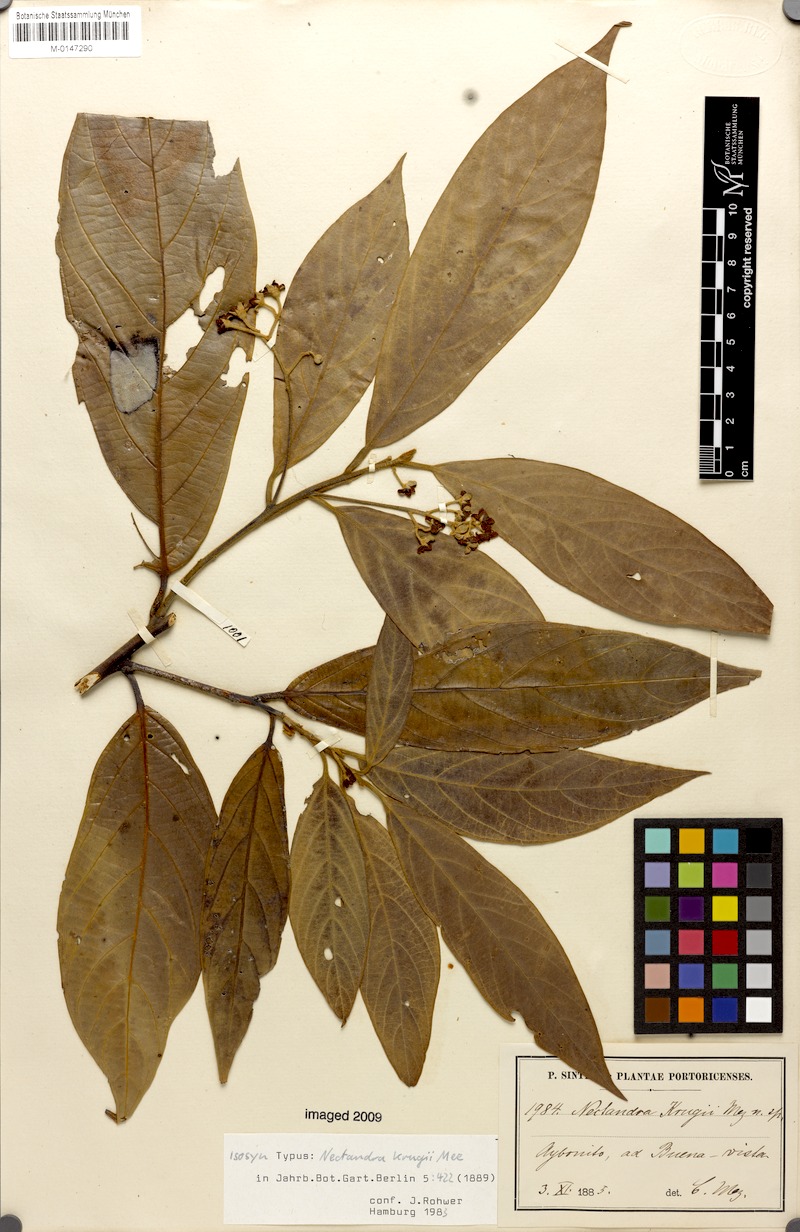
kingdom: Plantae
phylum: Tracheophyta
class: Magnoliopsida
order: Laurales
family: Lauraceae
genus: Nectandra
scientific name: Nectandra krugii
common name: Black sweetwood
